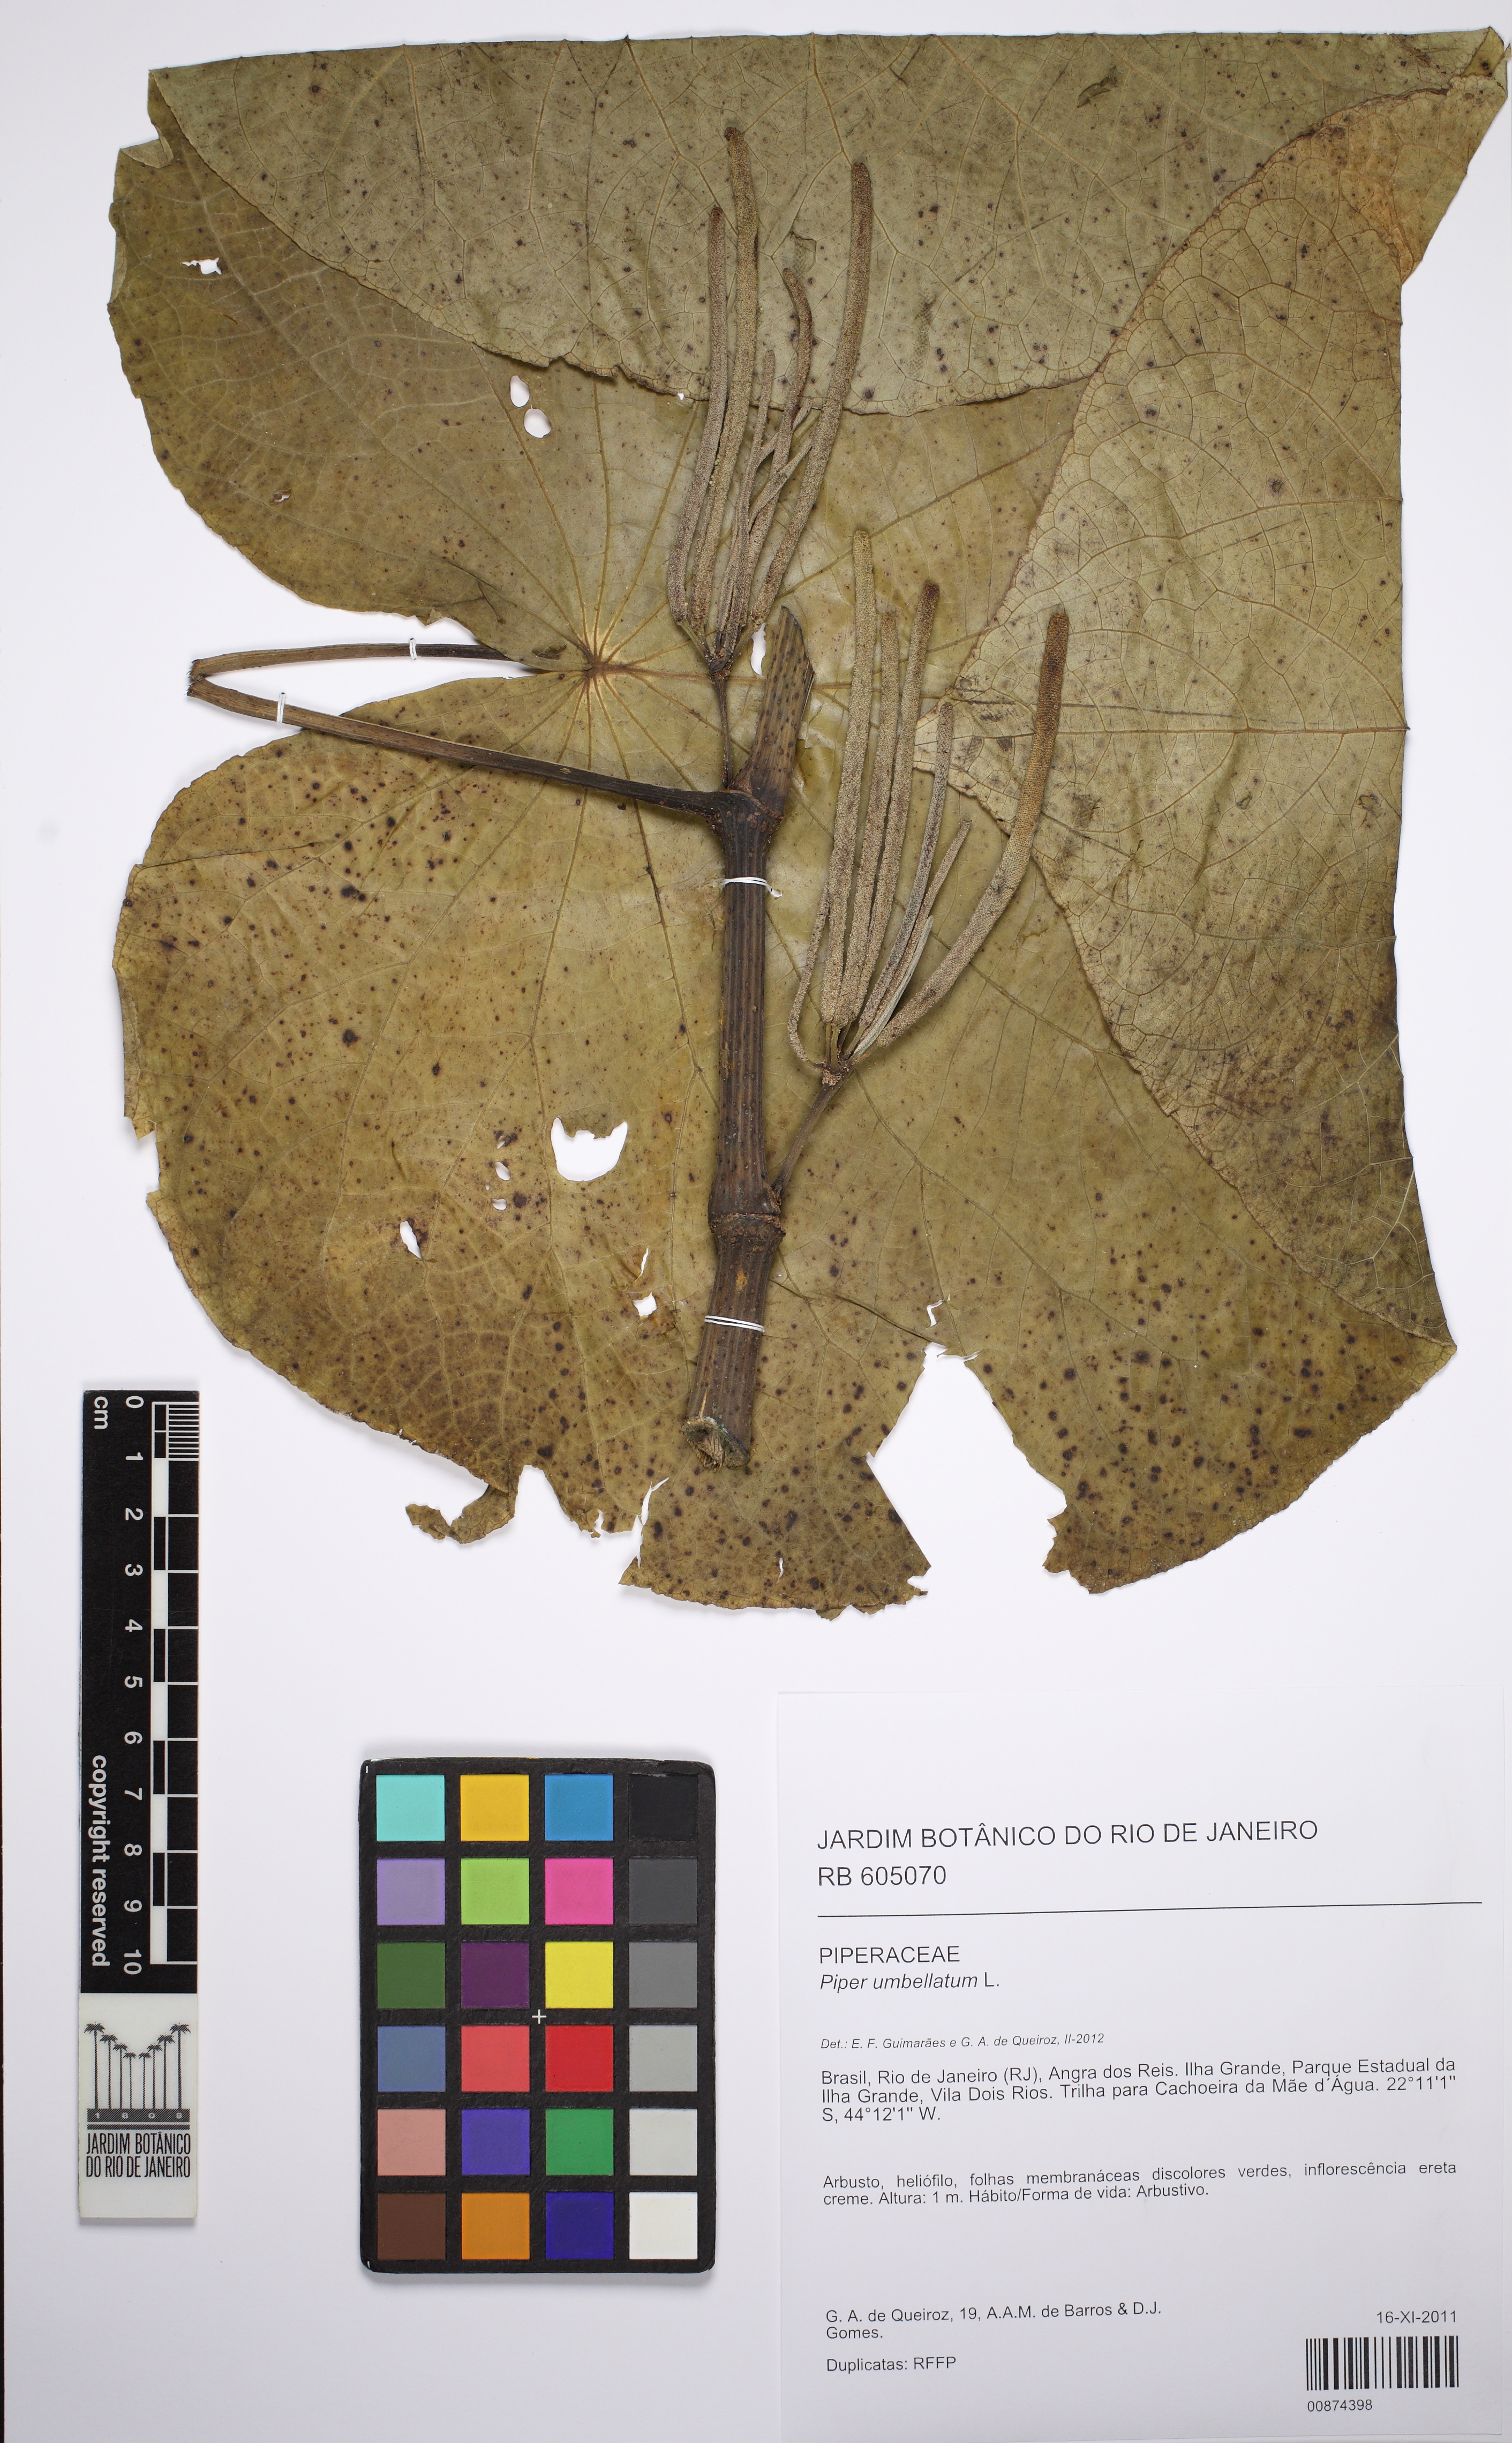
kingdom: Plantae
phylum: Tracheophyta
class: Magnoliopsida
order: Piperales
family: Piperaceae
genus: Piper
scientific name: Piper umbellatum
